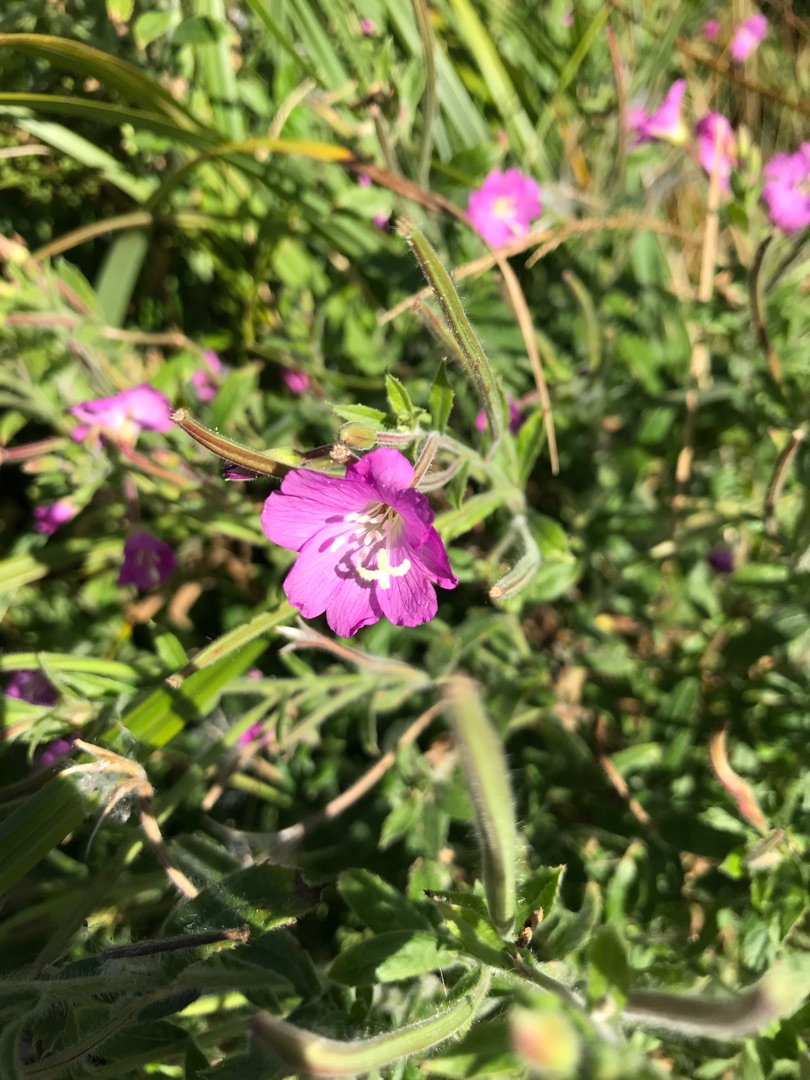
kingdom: Plantae
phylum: Tracheophyta
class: Magnoliopsida
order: Myrtales
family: Onagraceae
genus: Epilobium
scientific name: Epilobium hirsutum
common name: Lådden dueurt
